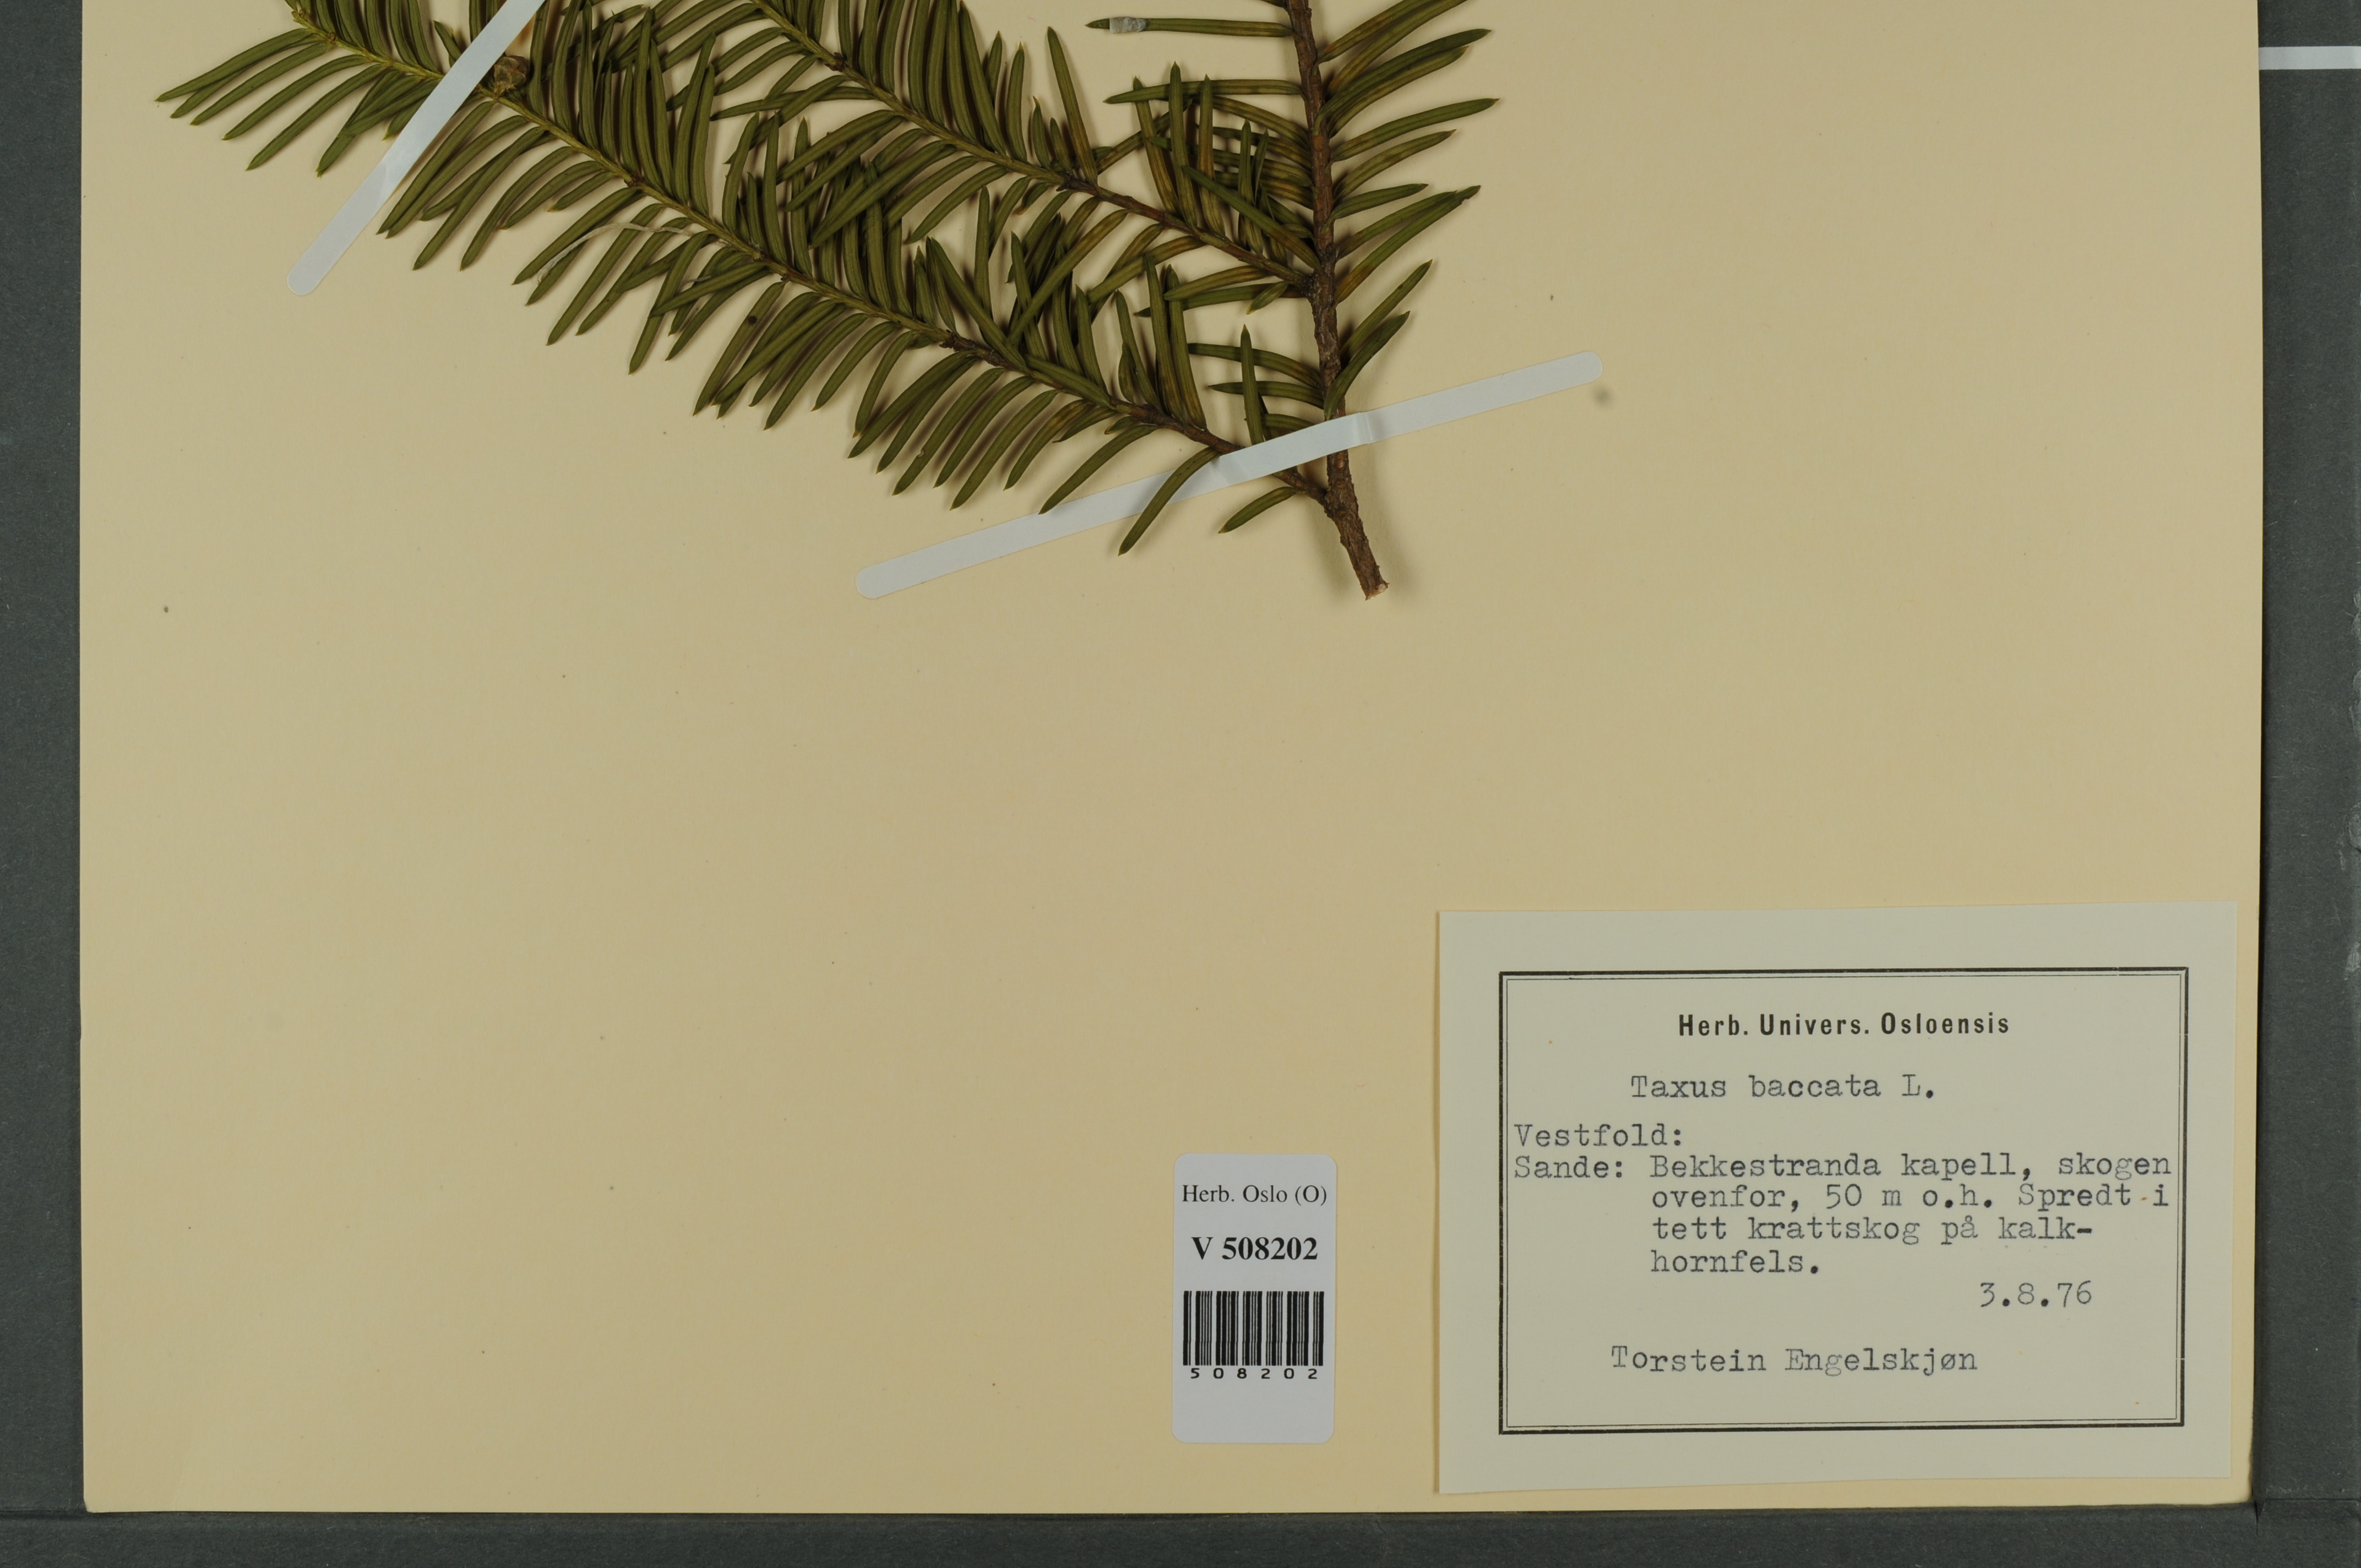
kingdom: Plantae
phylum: Tracheophyta
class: Pinopsida
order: Pinales
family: Taxaceae
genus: Taxus
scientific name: Taxus baccata
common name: Yew
